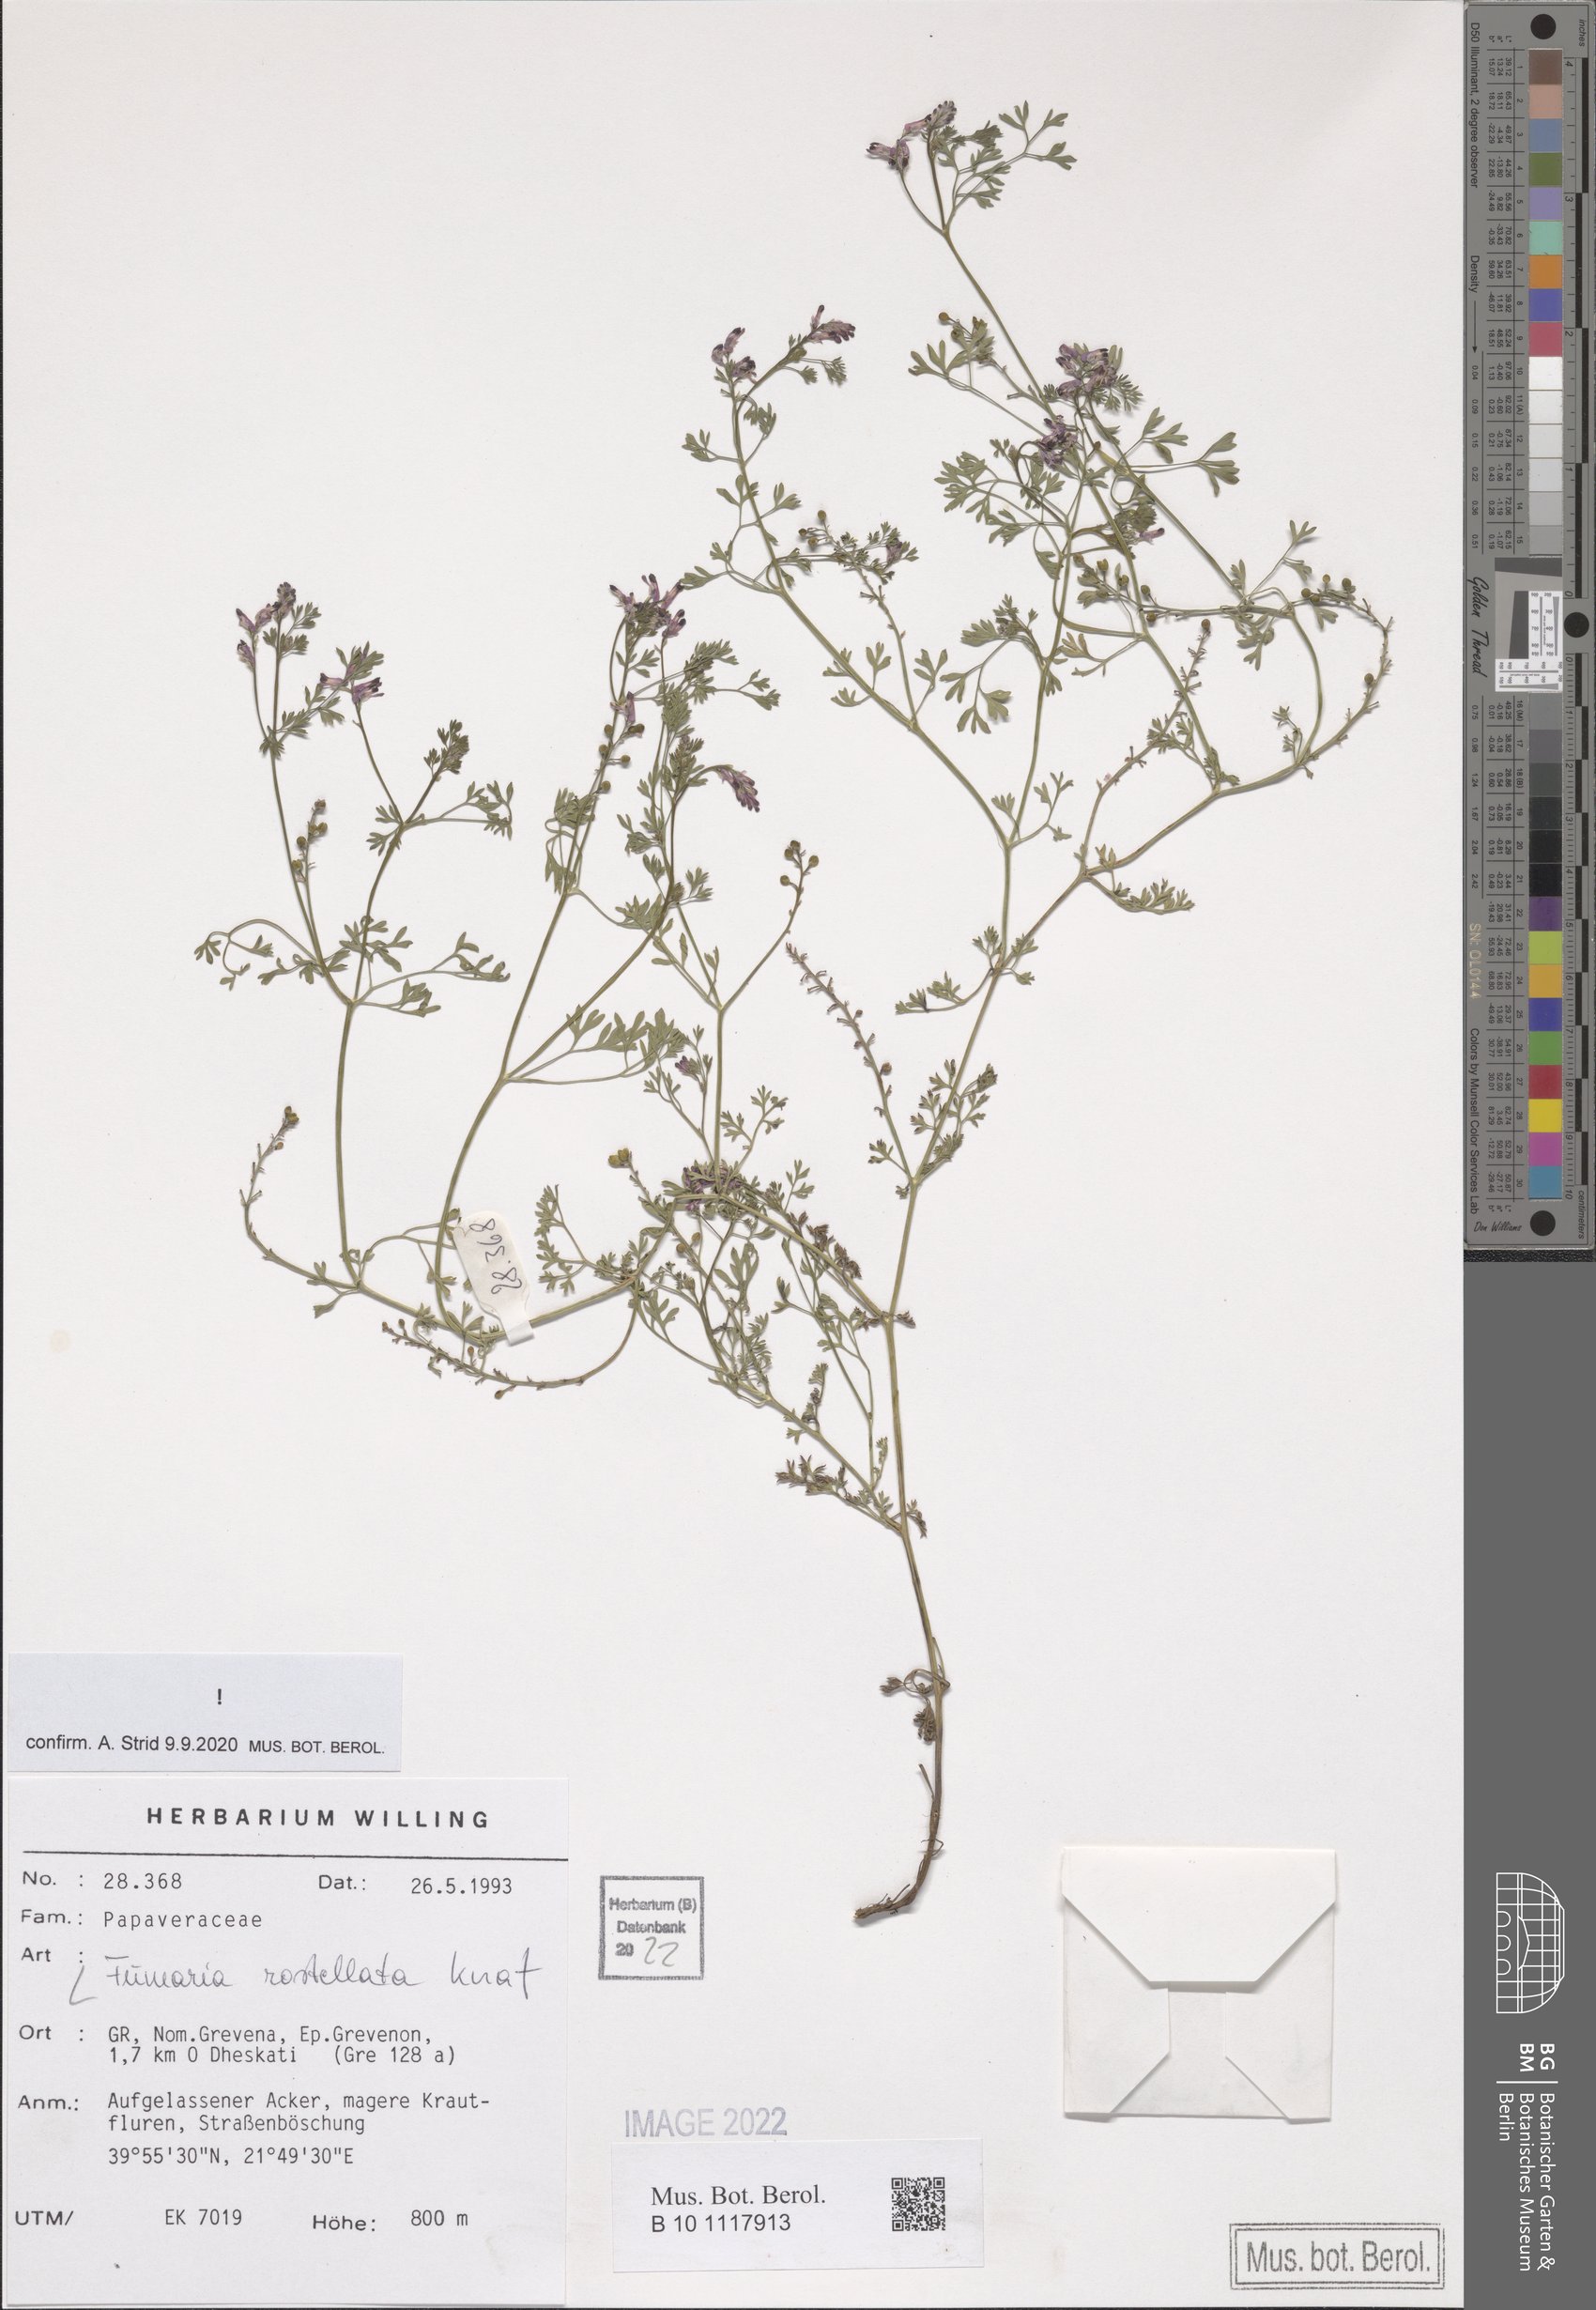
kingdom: Plantae
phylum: Tracheophyta
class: Magnoliopsida
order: Ranunculales
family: Papaveraceae
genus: Fumaria
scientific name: Fumaria rostellata
